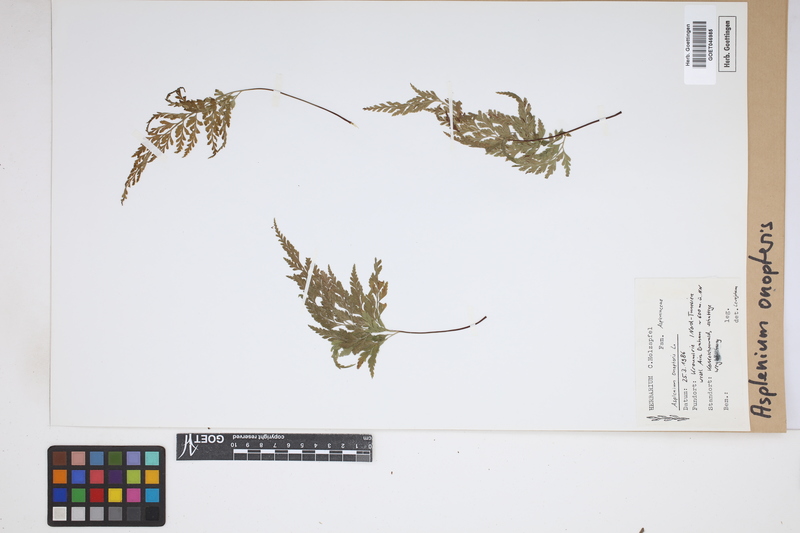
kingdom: Plantae
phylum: Tracheophyta
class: Polypodiopsida
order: Polypodiales
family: Aspleniaceae
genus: Asplenium
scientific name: Asplenium onopteris
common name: Irish spleenwort
